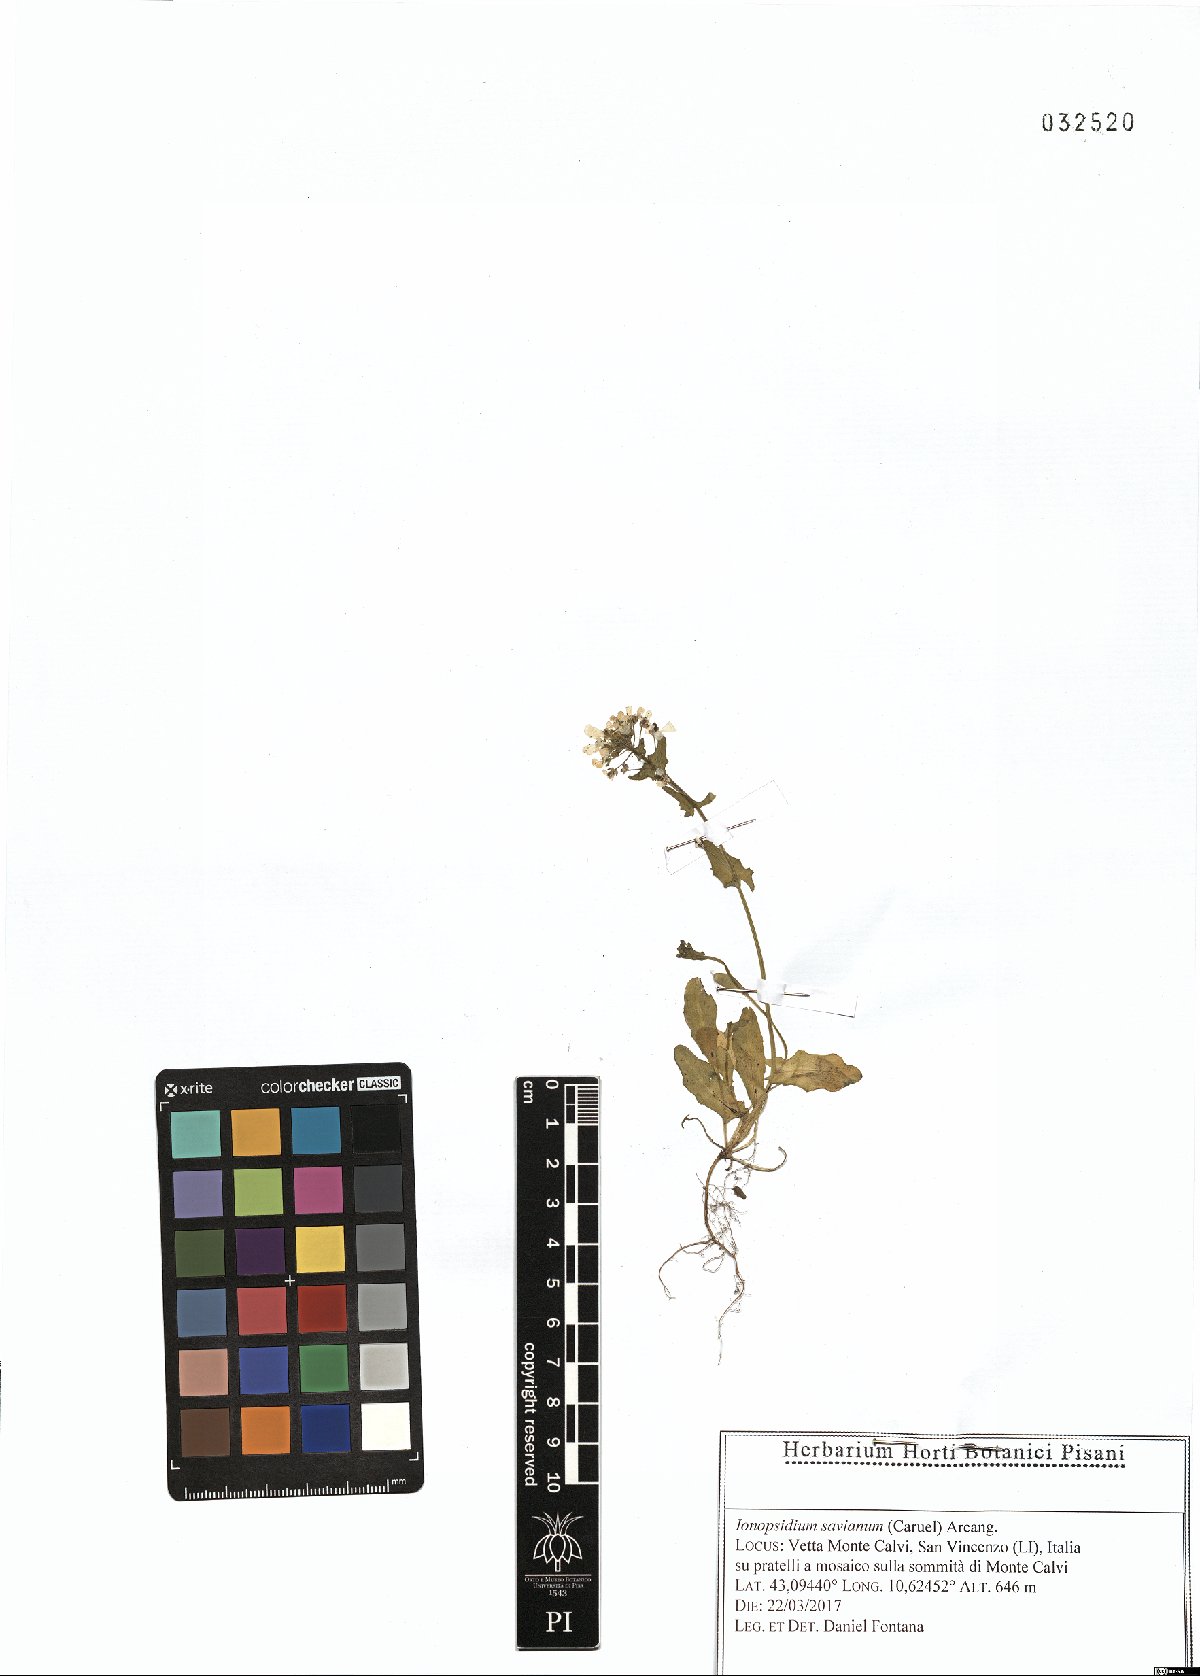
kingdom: Plantae
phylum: Tracheophyta
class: Magnoliopsida
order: Brassicales
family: Brassicaceae
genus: Ionopsidium
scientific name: Ionopsidium savianum
